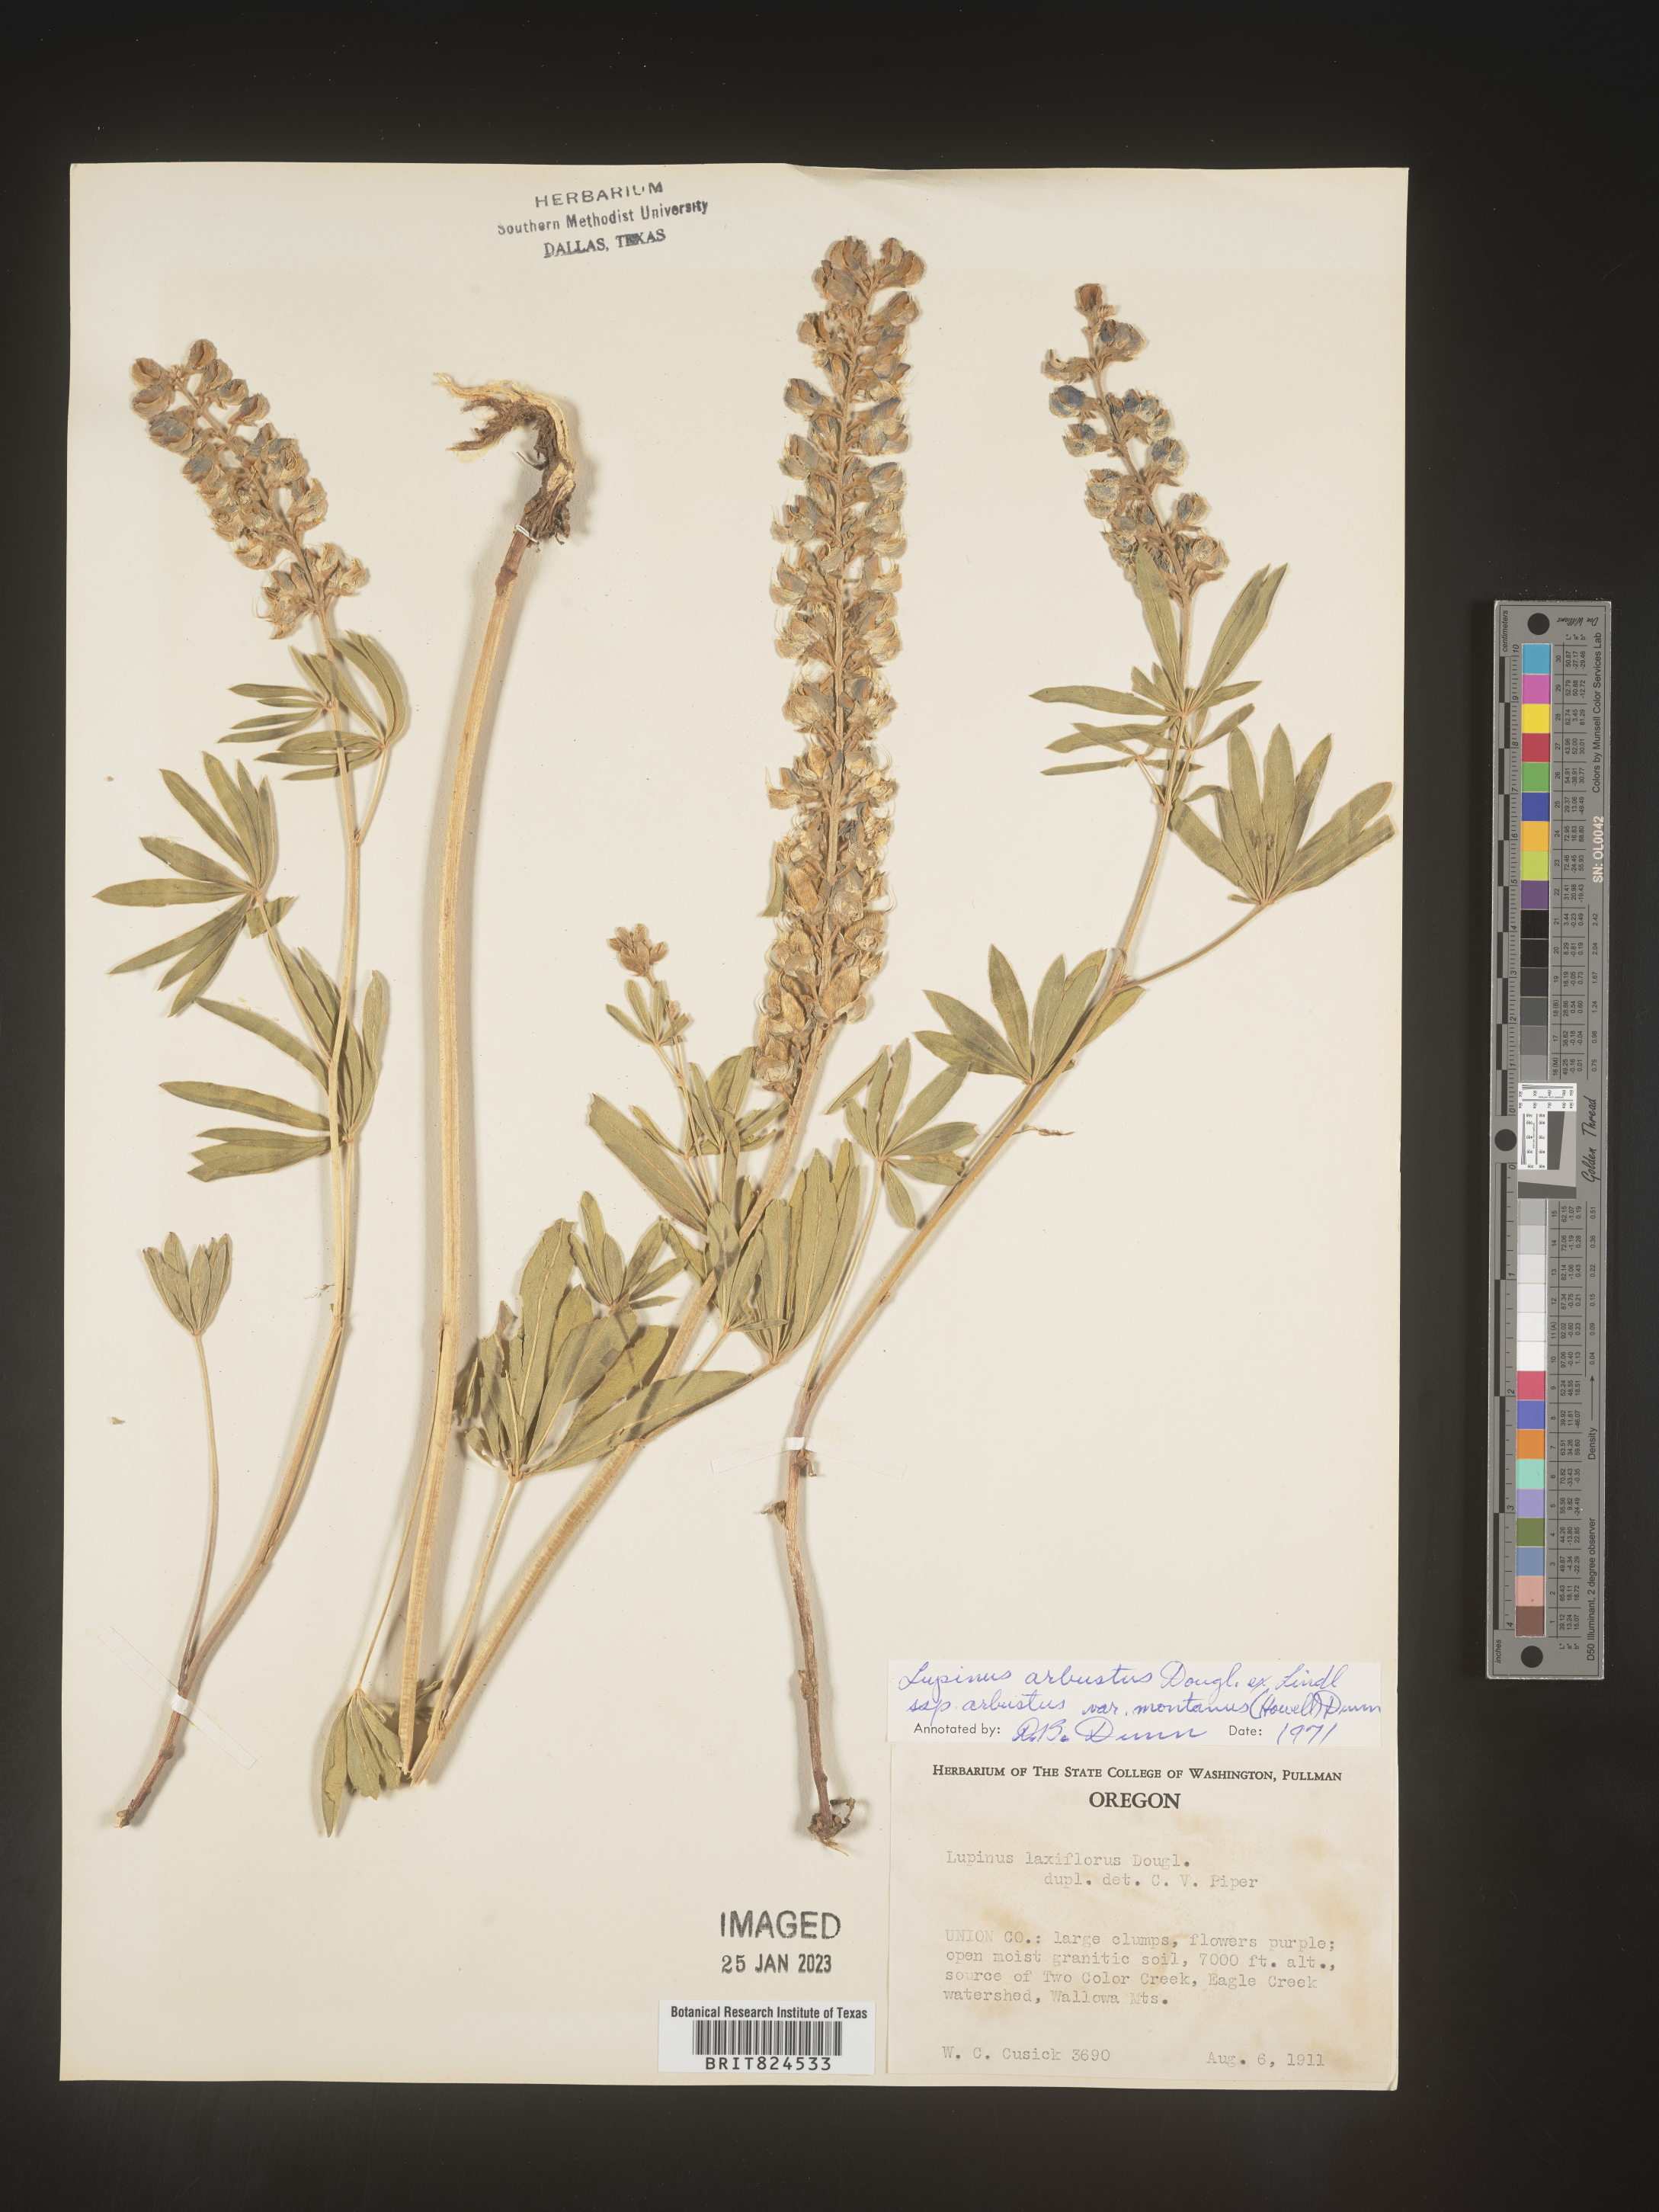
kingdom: Plantae
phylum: Tracheophyta
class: Magnoliopsida
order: Fabales
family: Fabaceae
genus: Lupinus
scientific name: Lupinus arbustus
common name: Montana lupine
